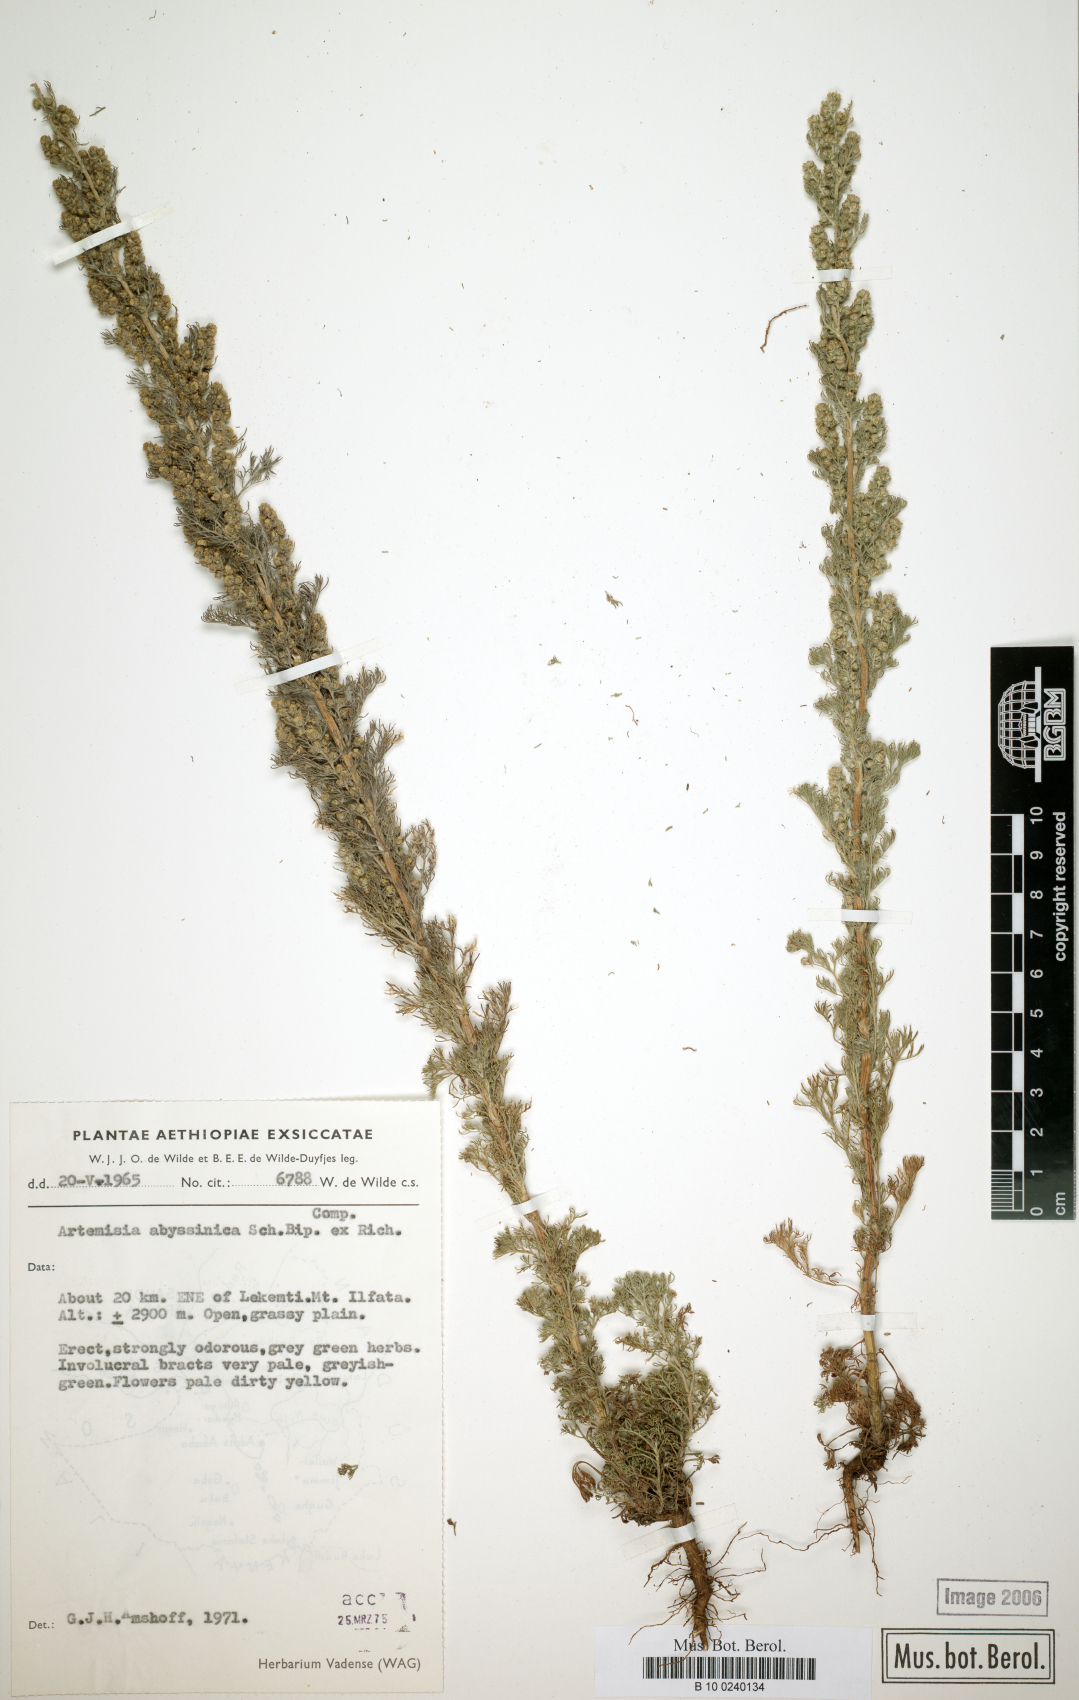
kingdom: Plantae
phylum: Tracheophyta
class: Magnoliopsida
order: Asterales
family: Asteraceae
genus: Artemisia
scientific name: Artemisia abyssinica
